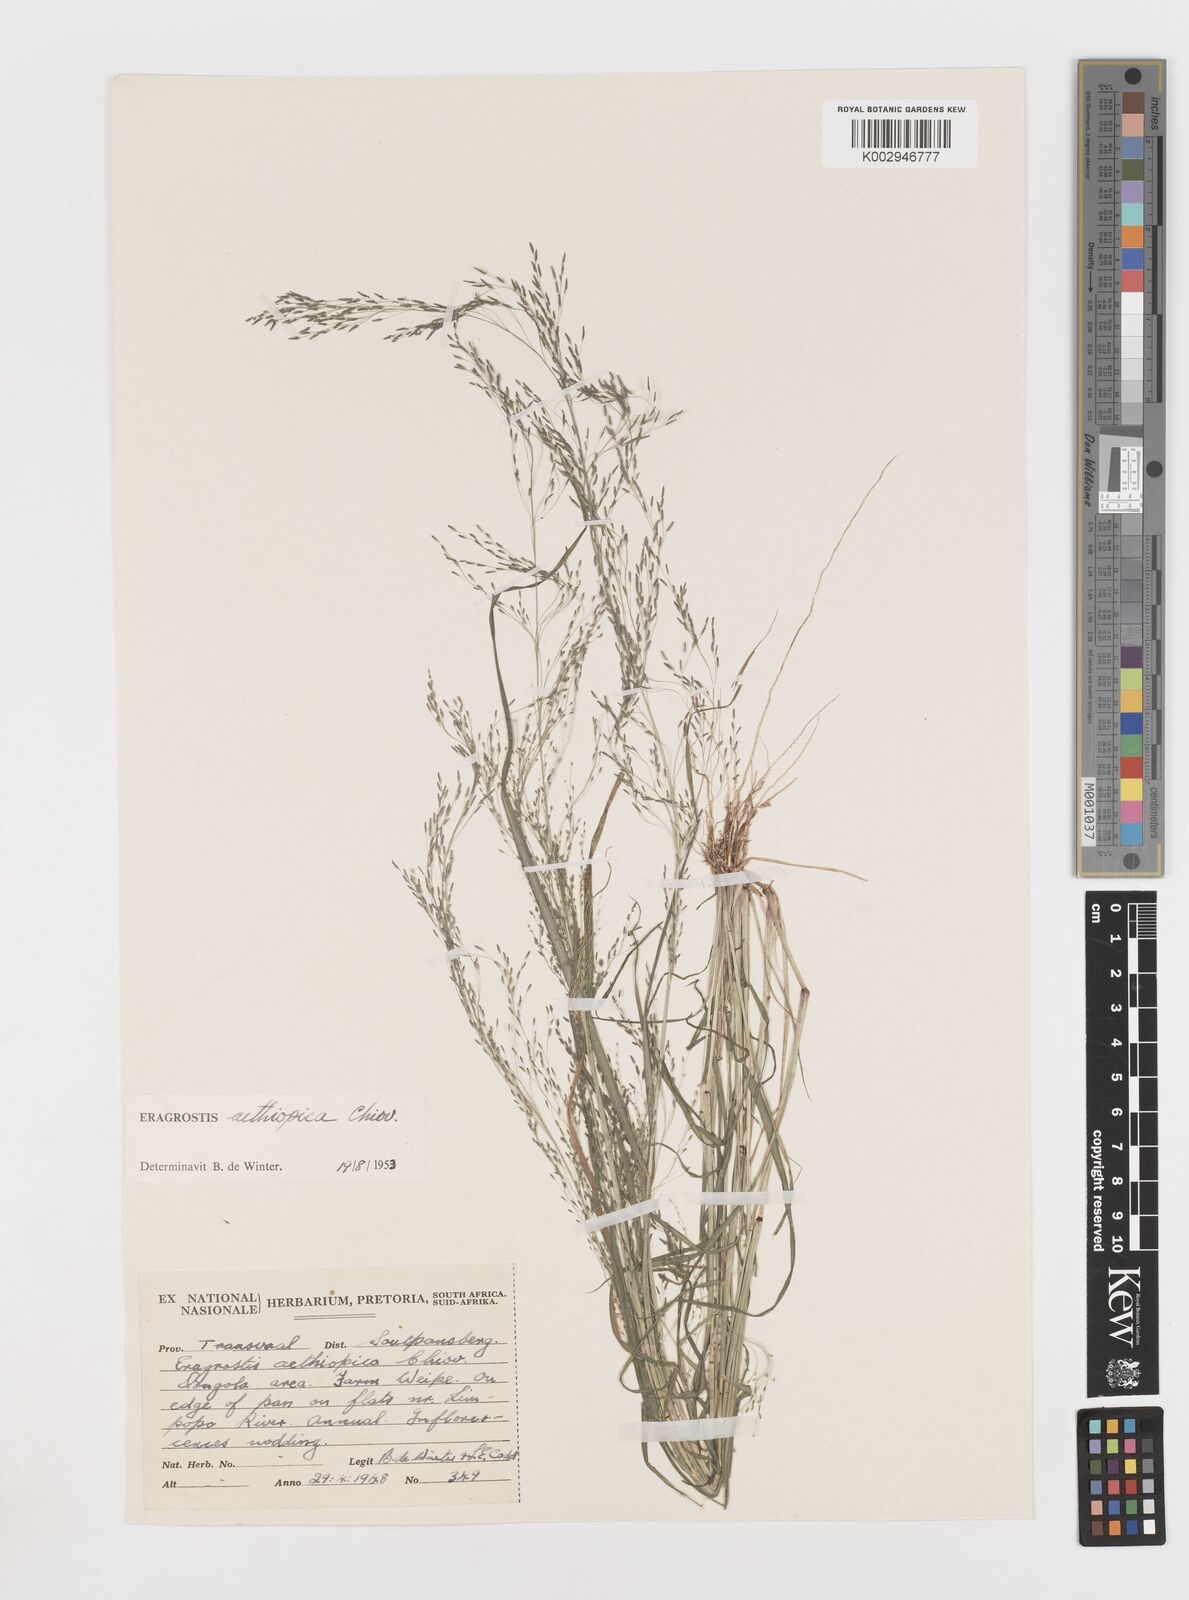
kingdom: Plantae
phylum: Tracheophyta
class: Liliopsida
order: Poales
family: Poaceae
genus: Eragrostis
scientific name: Eragrostis aethiopica
